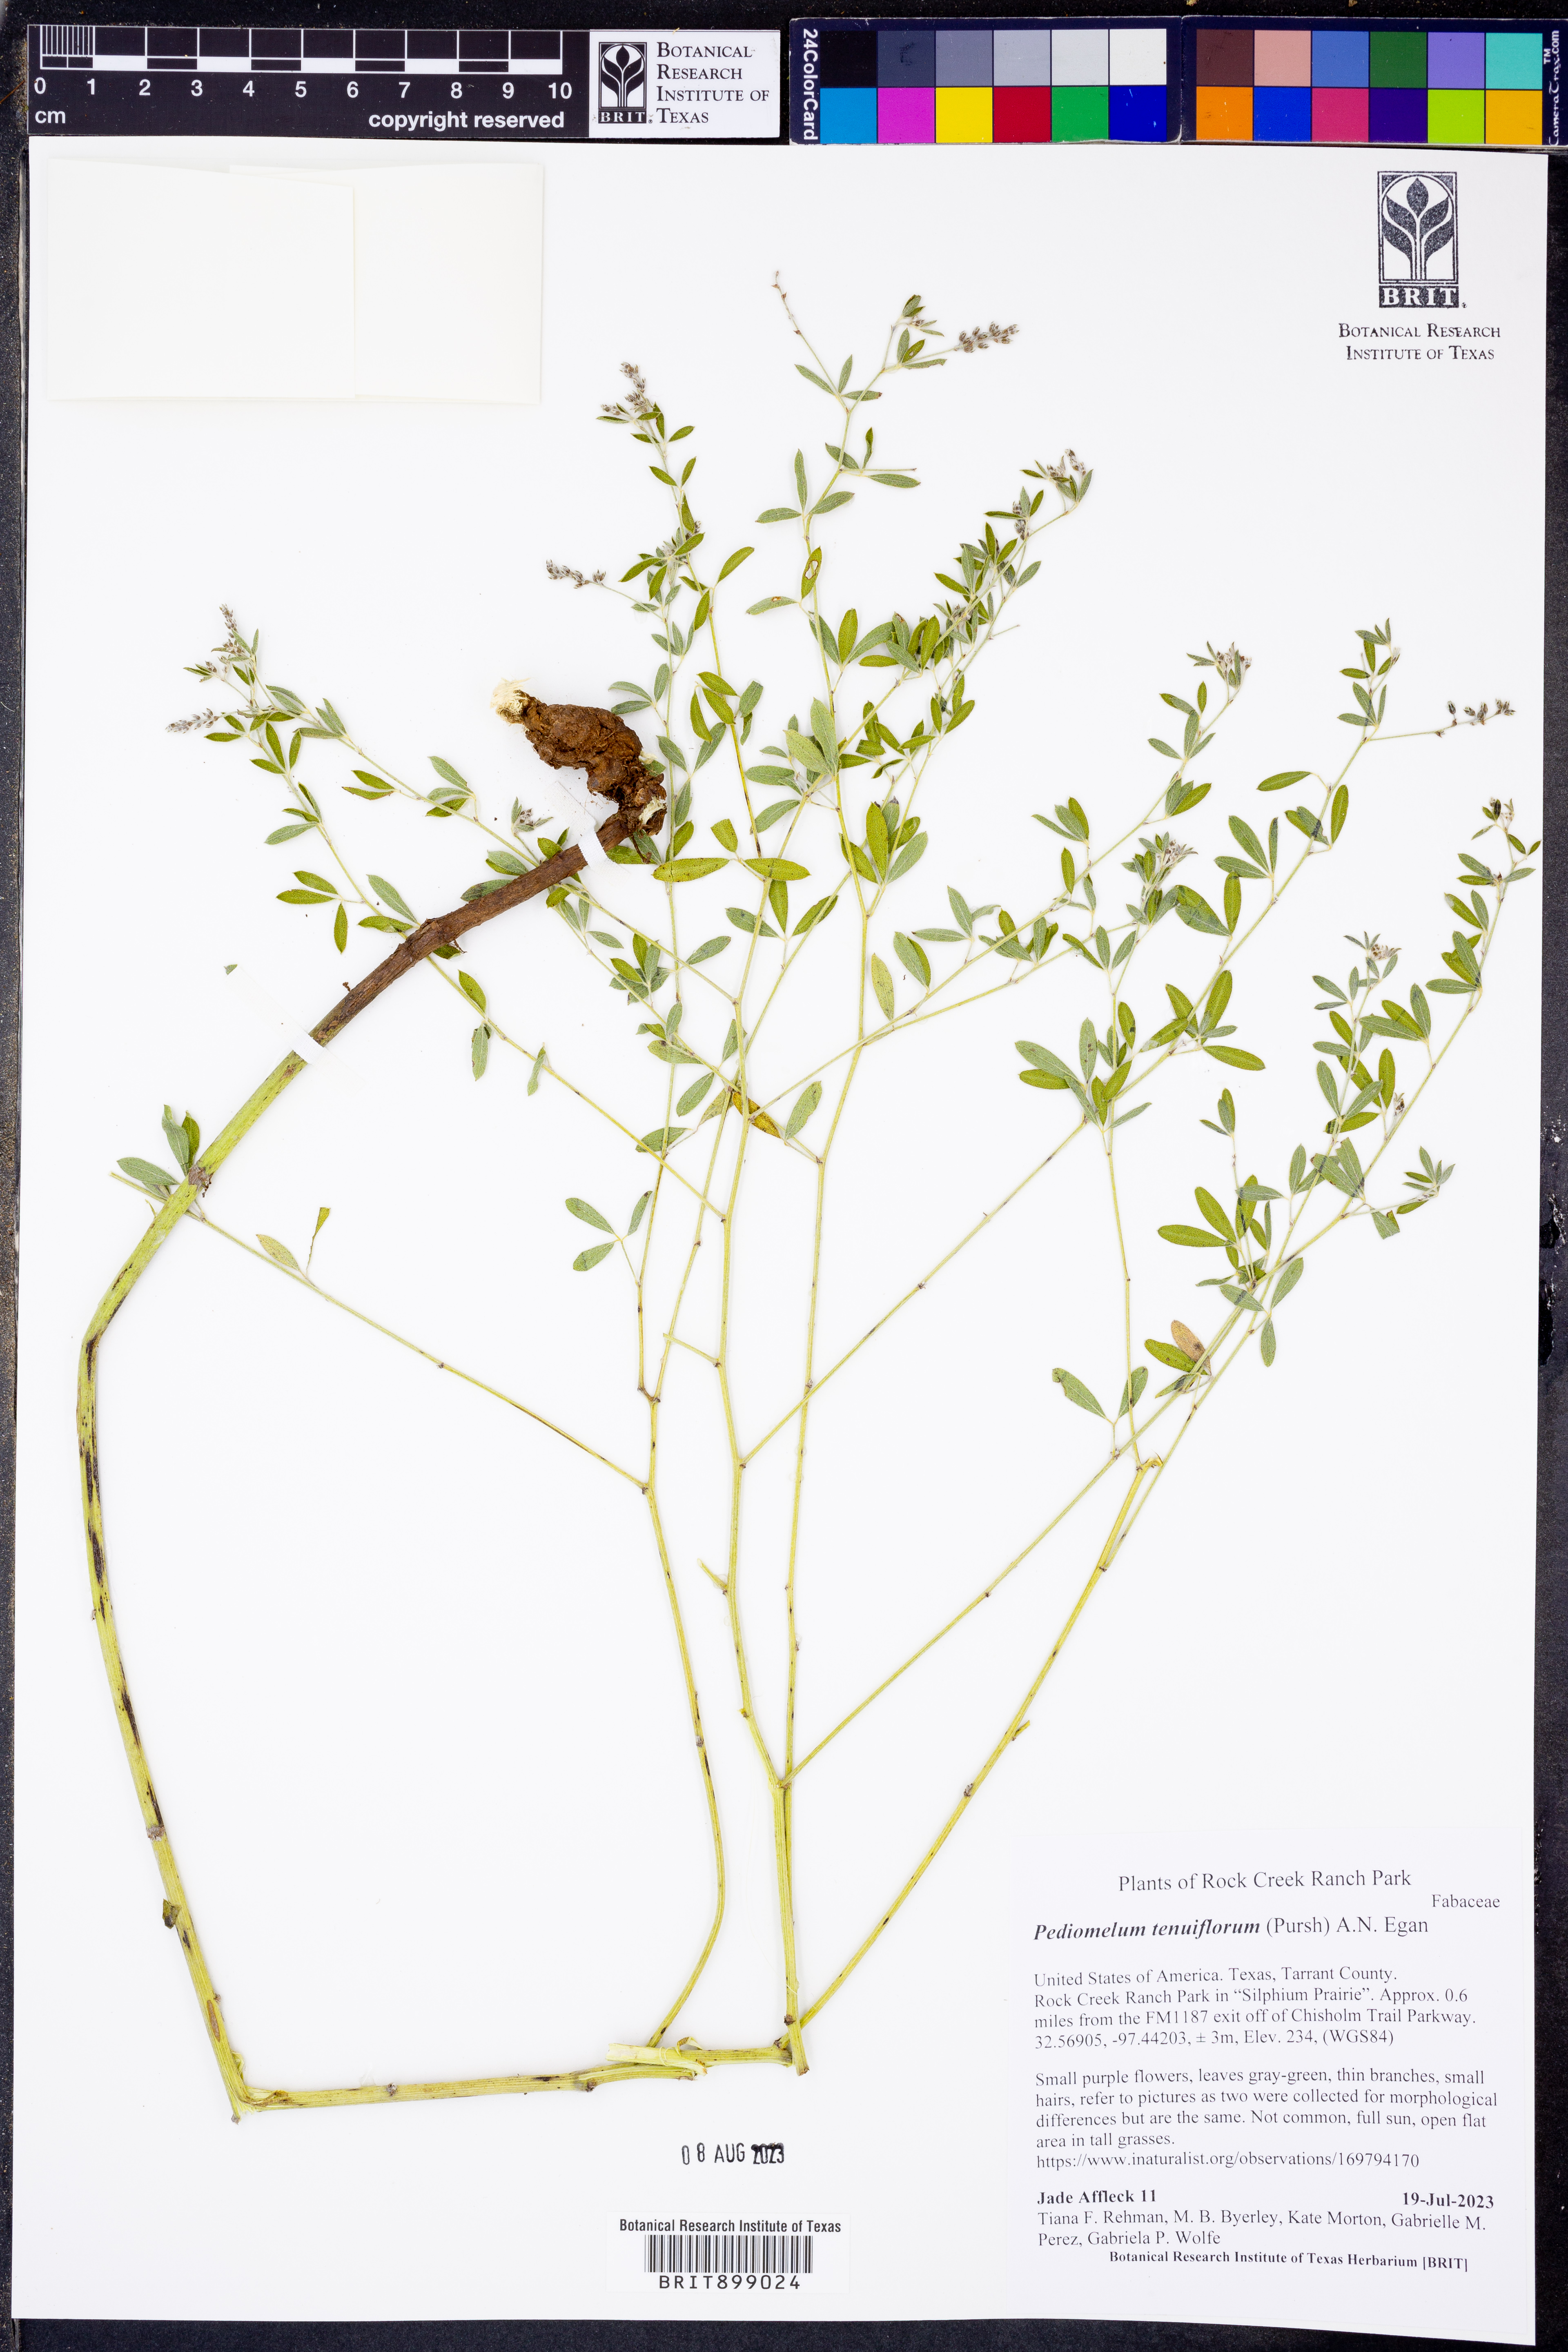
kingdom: Plantae
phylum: Tracheophyta
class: Magnoliopsida
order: Fabales
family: Fabaceae
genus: Pediomelum
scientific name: Pediomelum tenuiflorum
